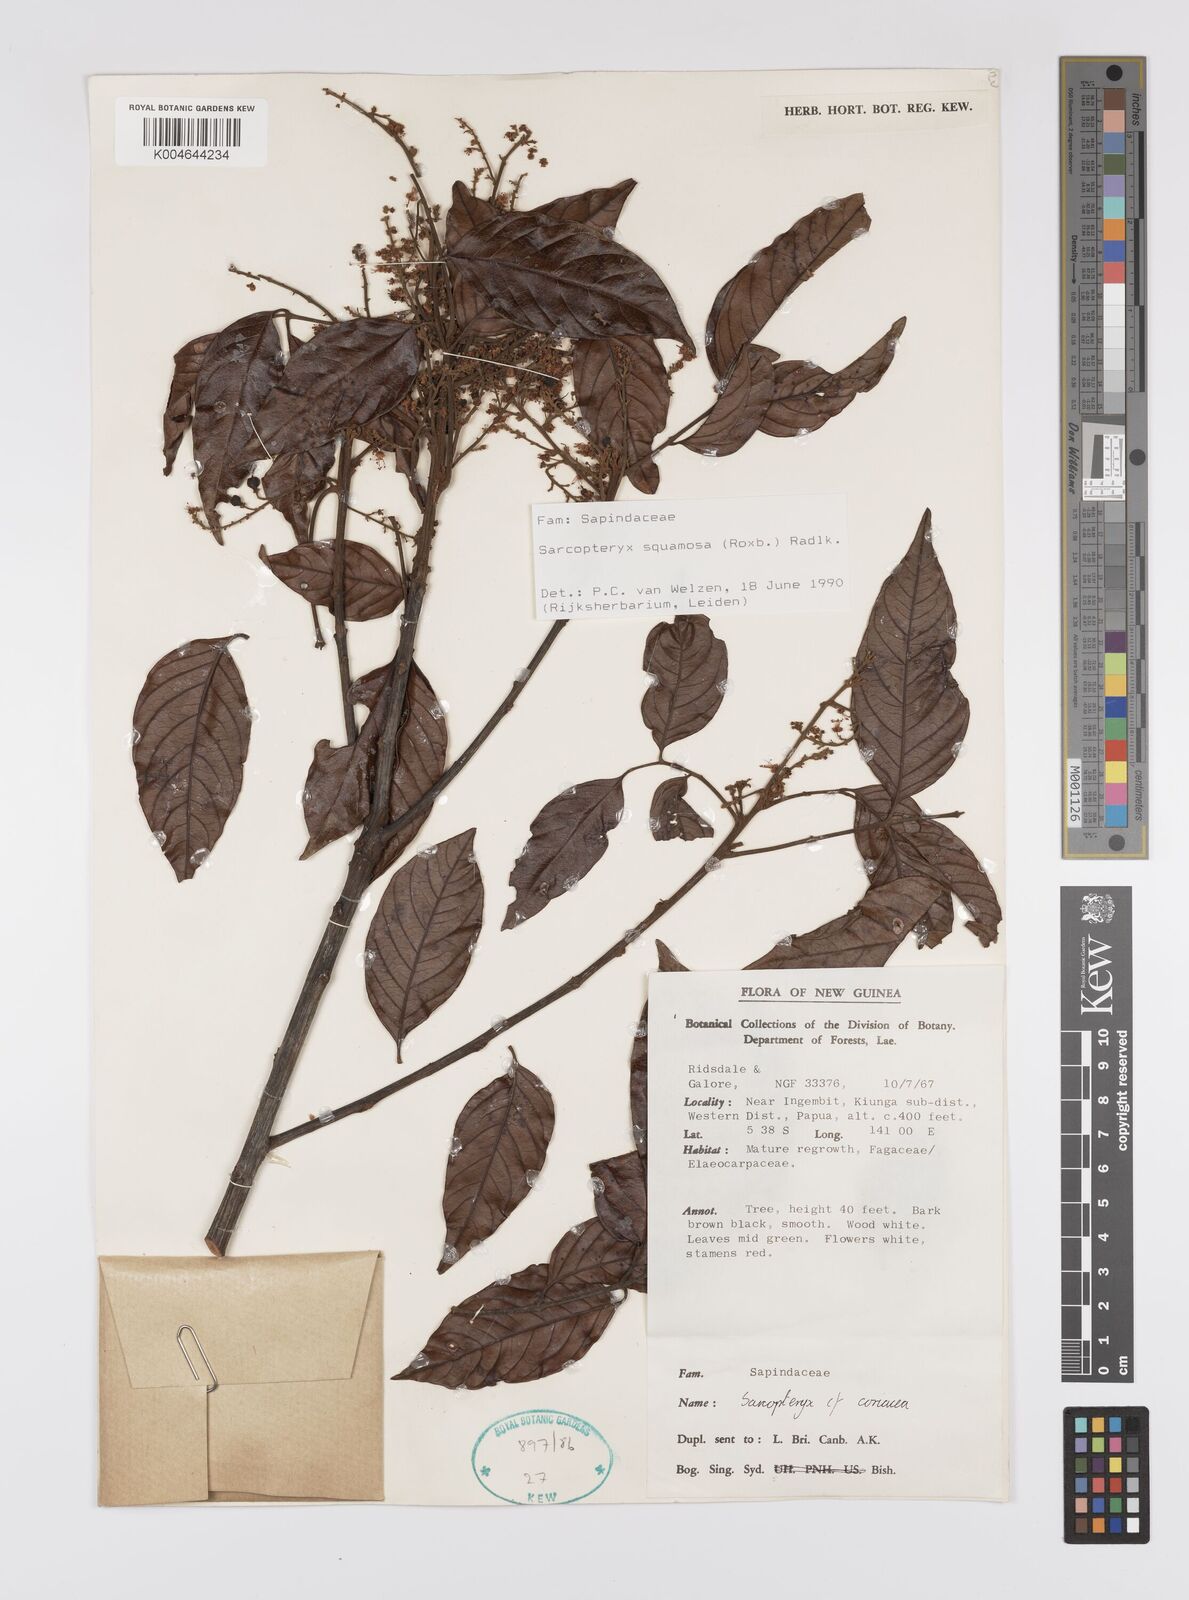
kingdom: Plantae
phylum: Tracheophyta
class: Magnoliopsida
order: Sapindales
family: Sapindaceae
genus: Sarcopteryx
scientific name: Sarcopteryx squamosa
